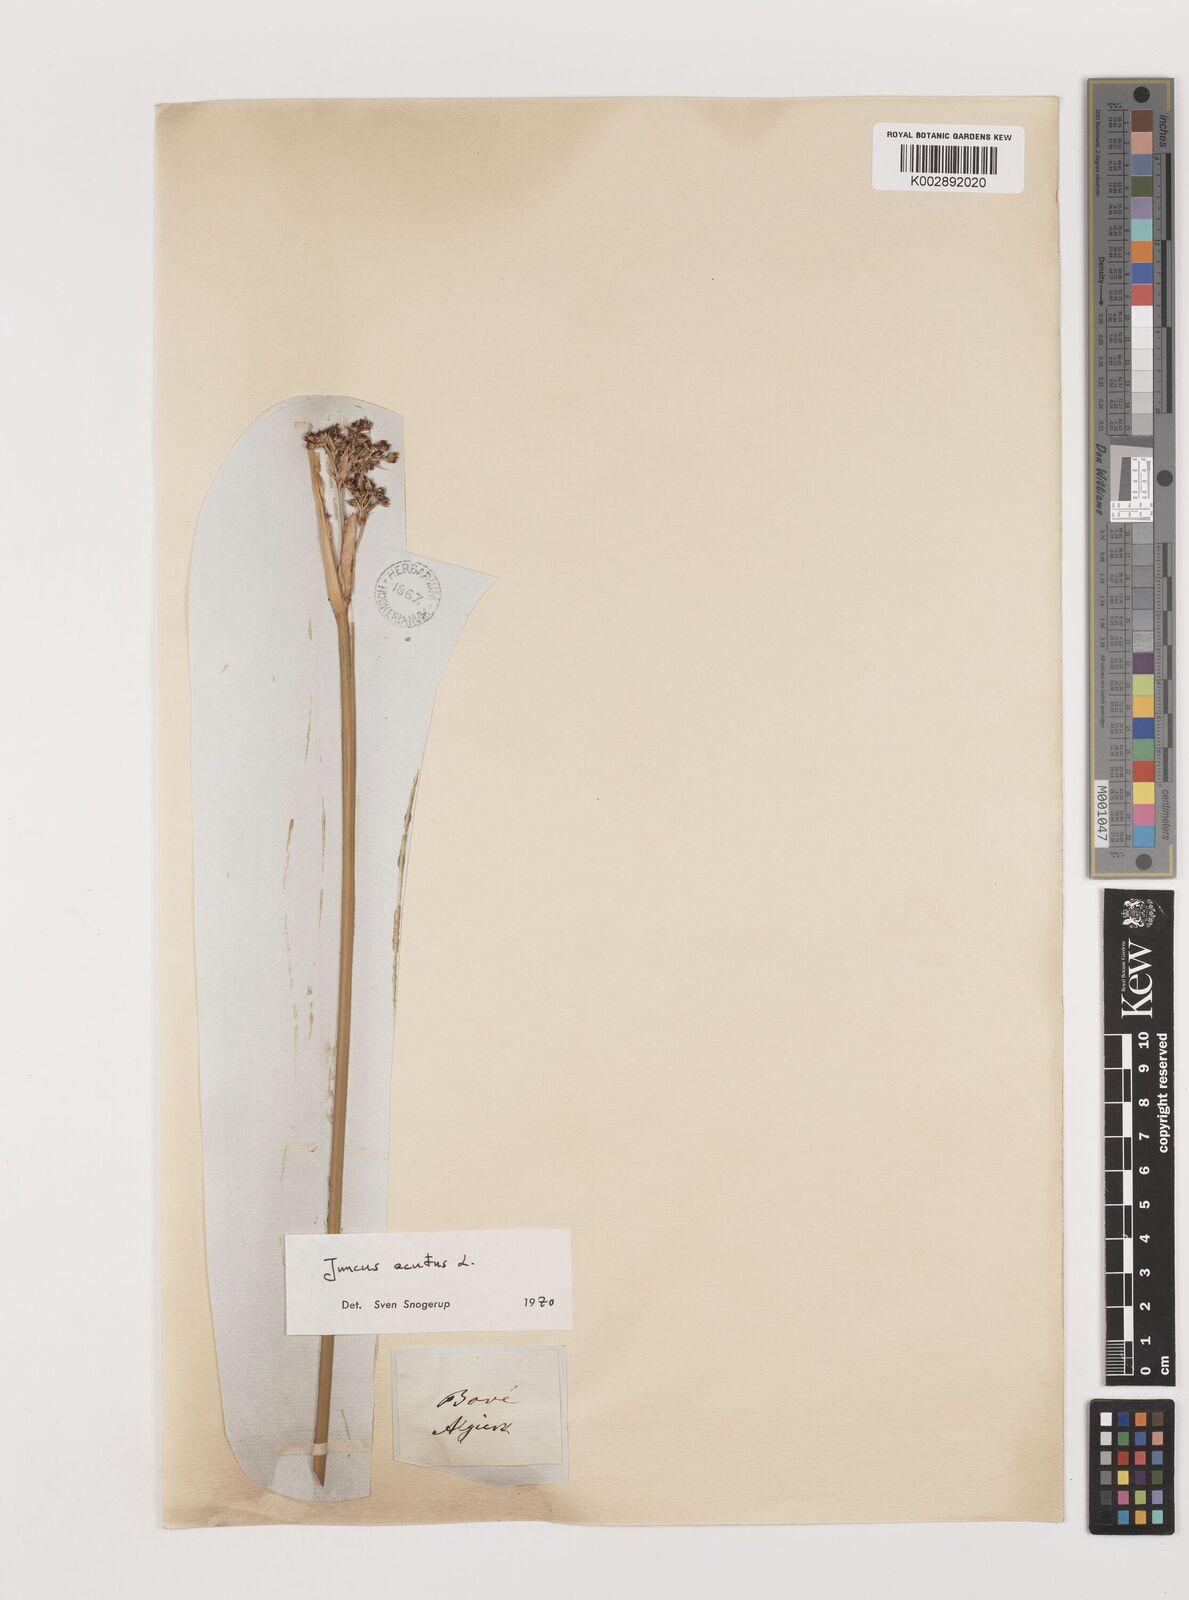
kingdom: Plantae
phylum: Tracheophyta
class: Liliopsida
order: Poales
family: Juncaceae
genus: Juncus
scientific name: Juncus acutus
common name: Sharp rush
